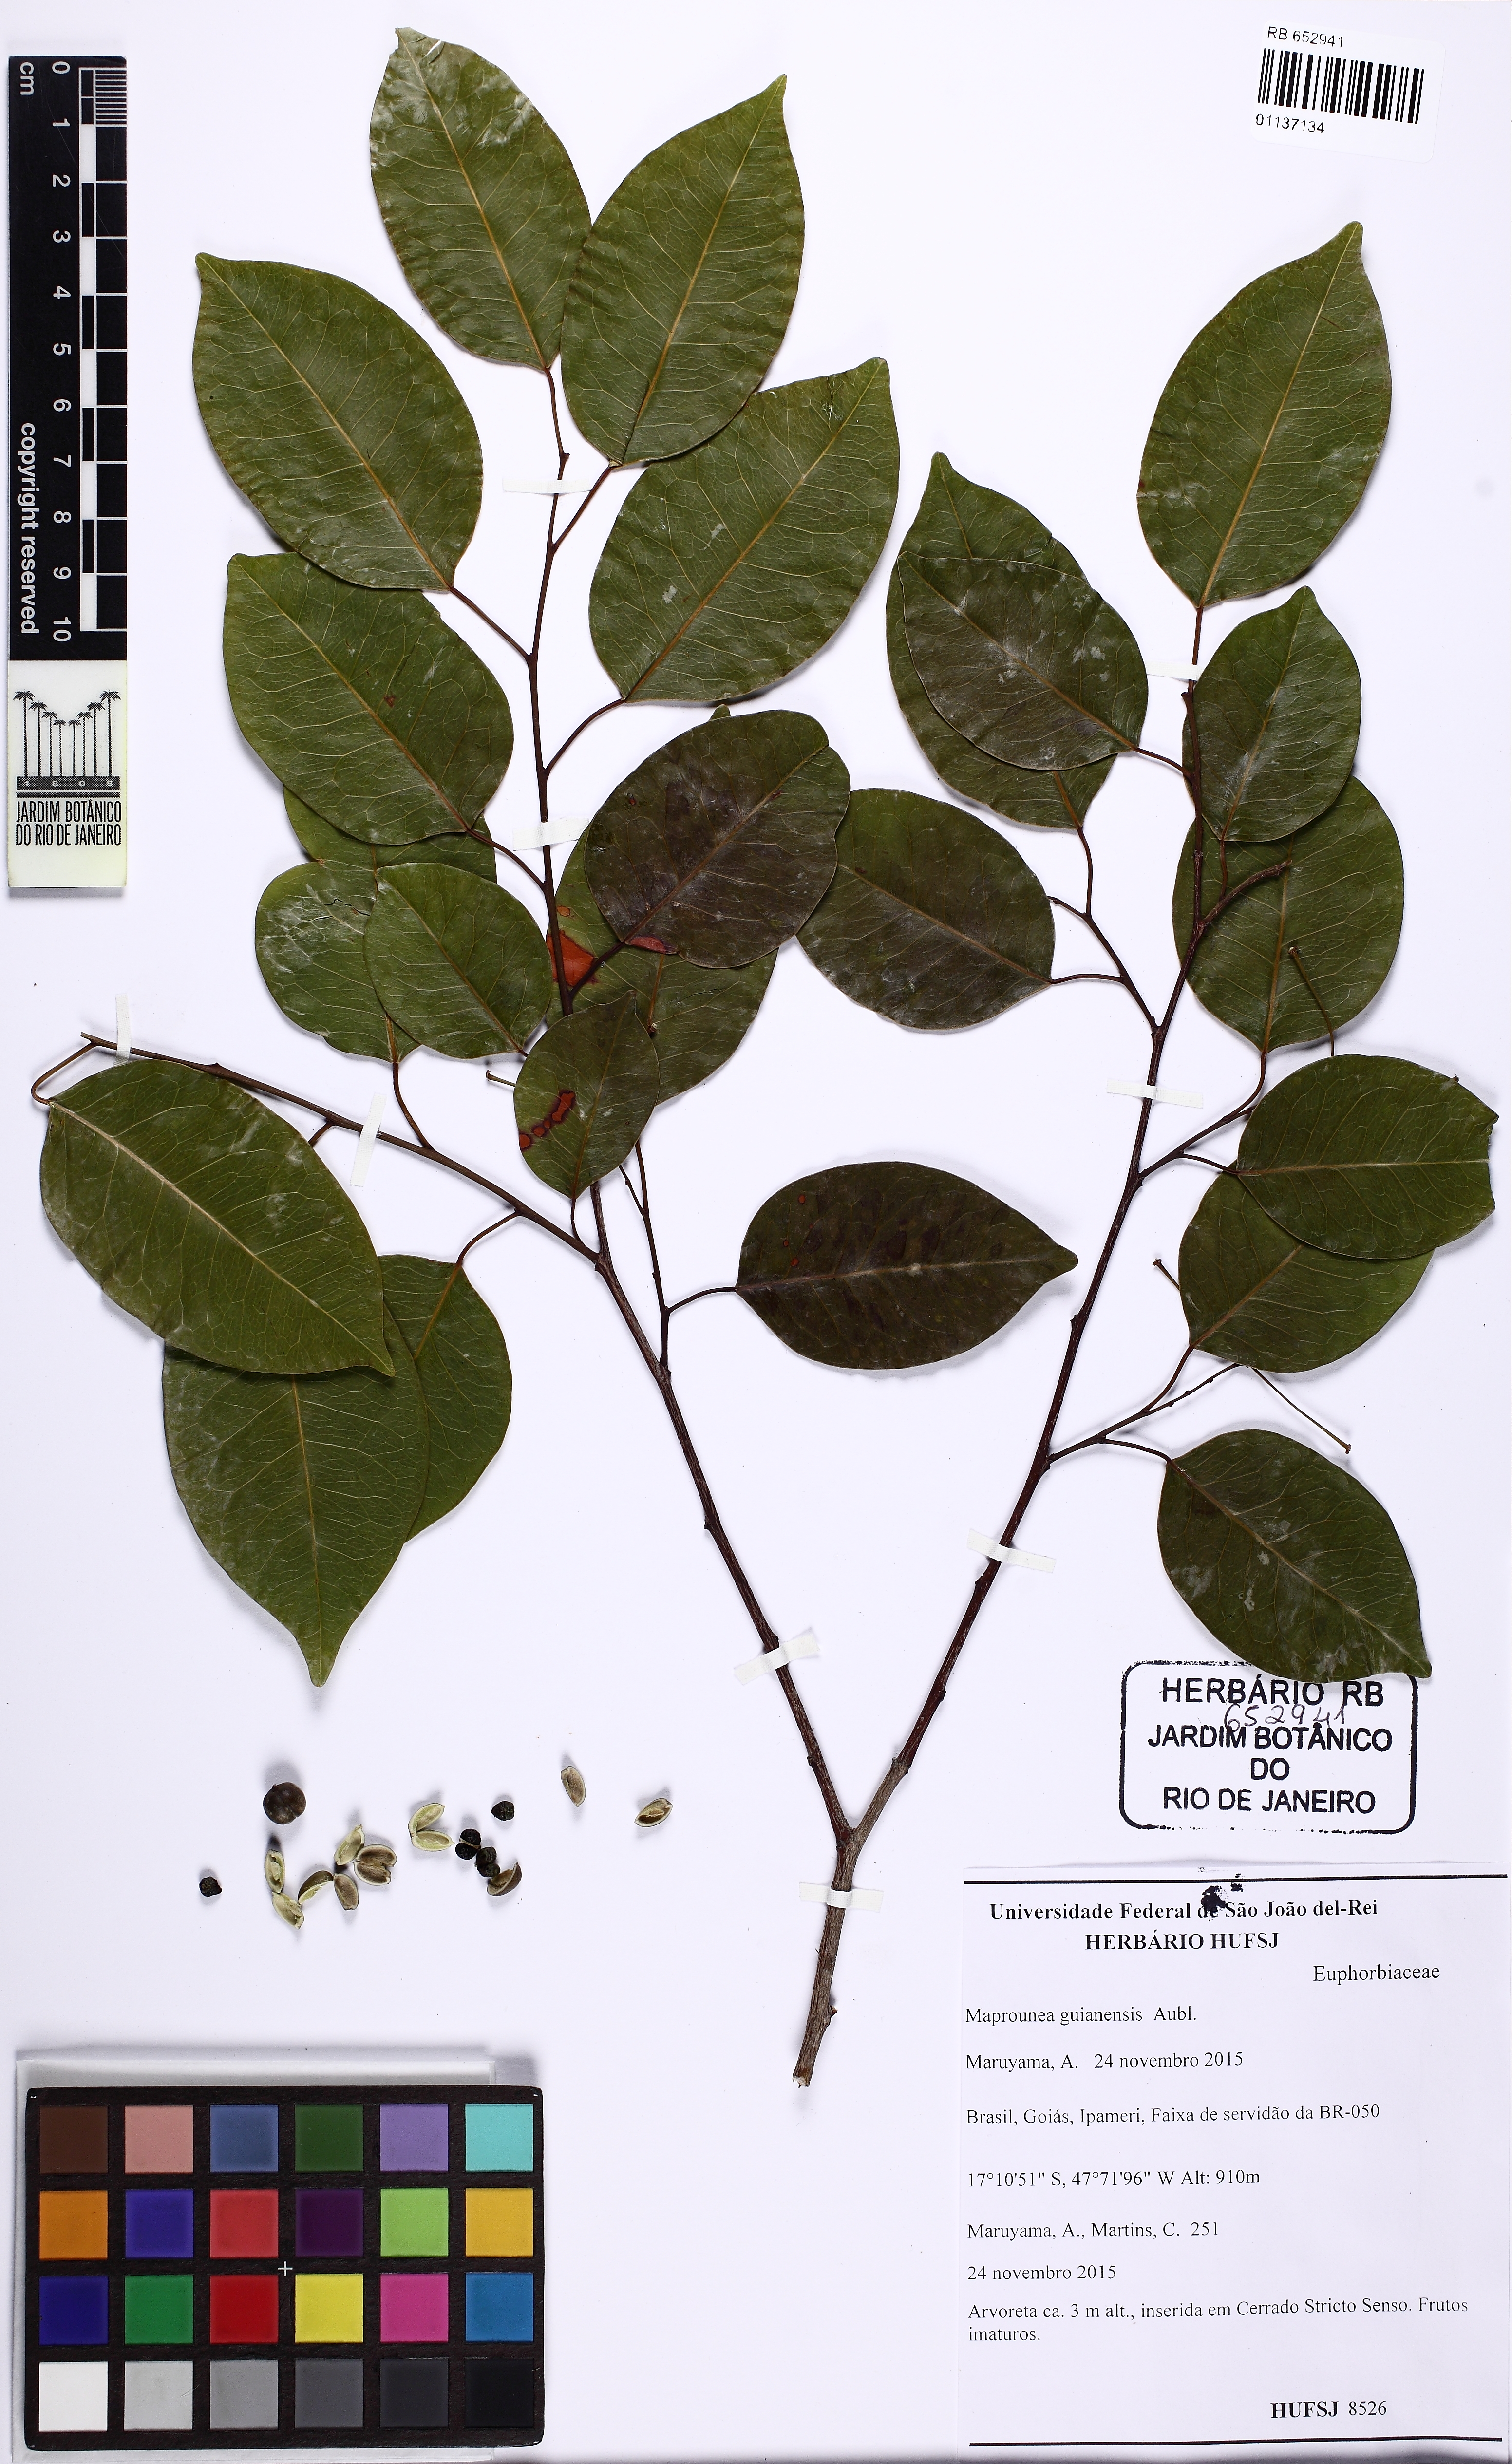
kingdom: Plantae
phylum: Tracheophyta
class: Magnoliopsida
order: Malpighiales
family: Euphorbiaceae
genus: Maprounea
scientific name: Maprounea guianensis
